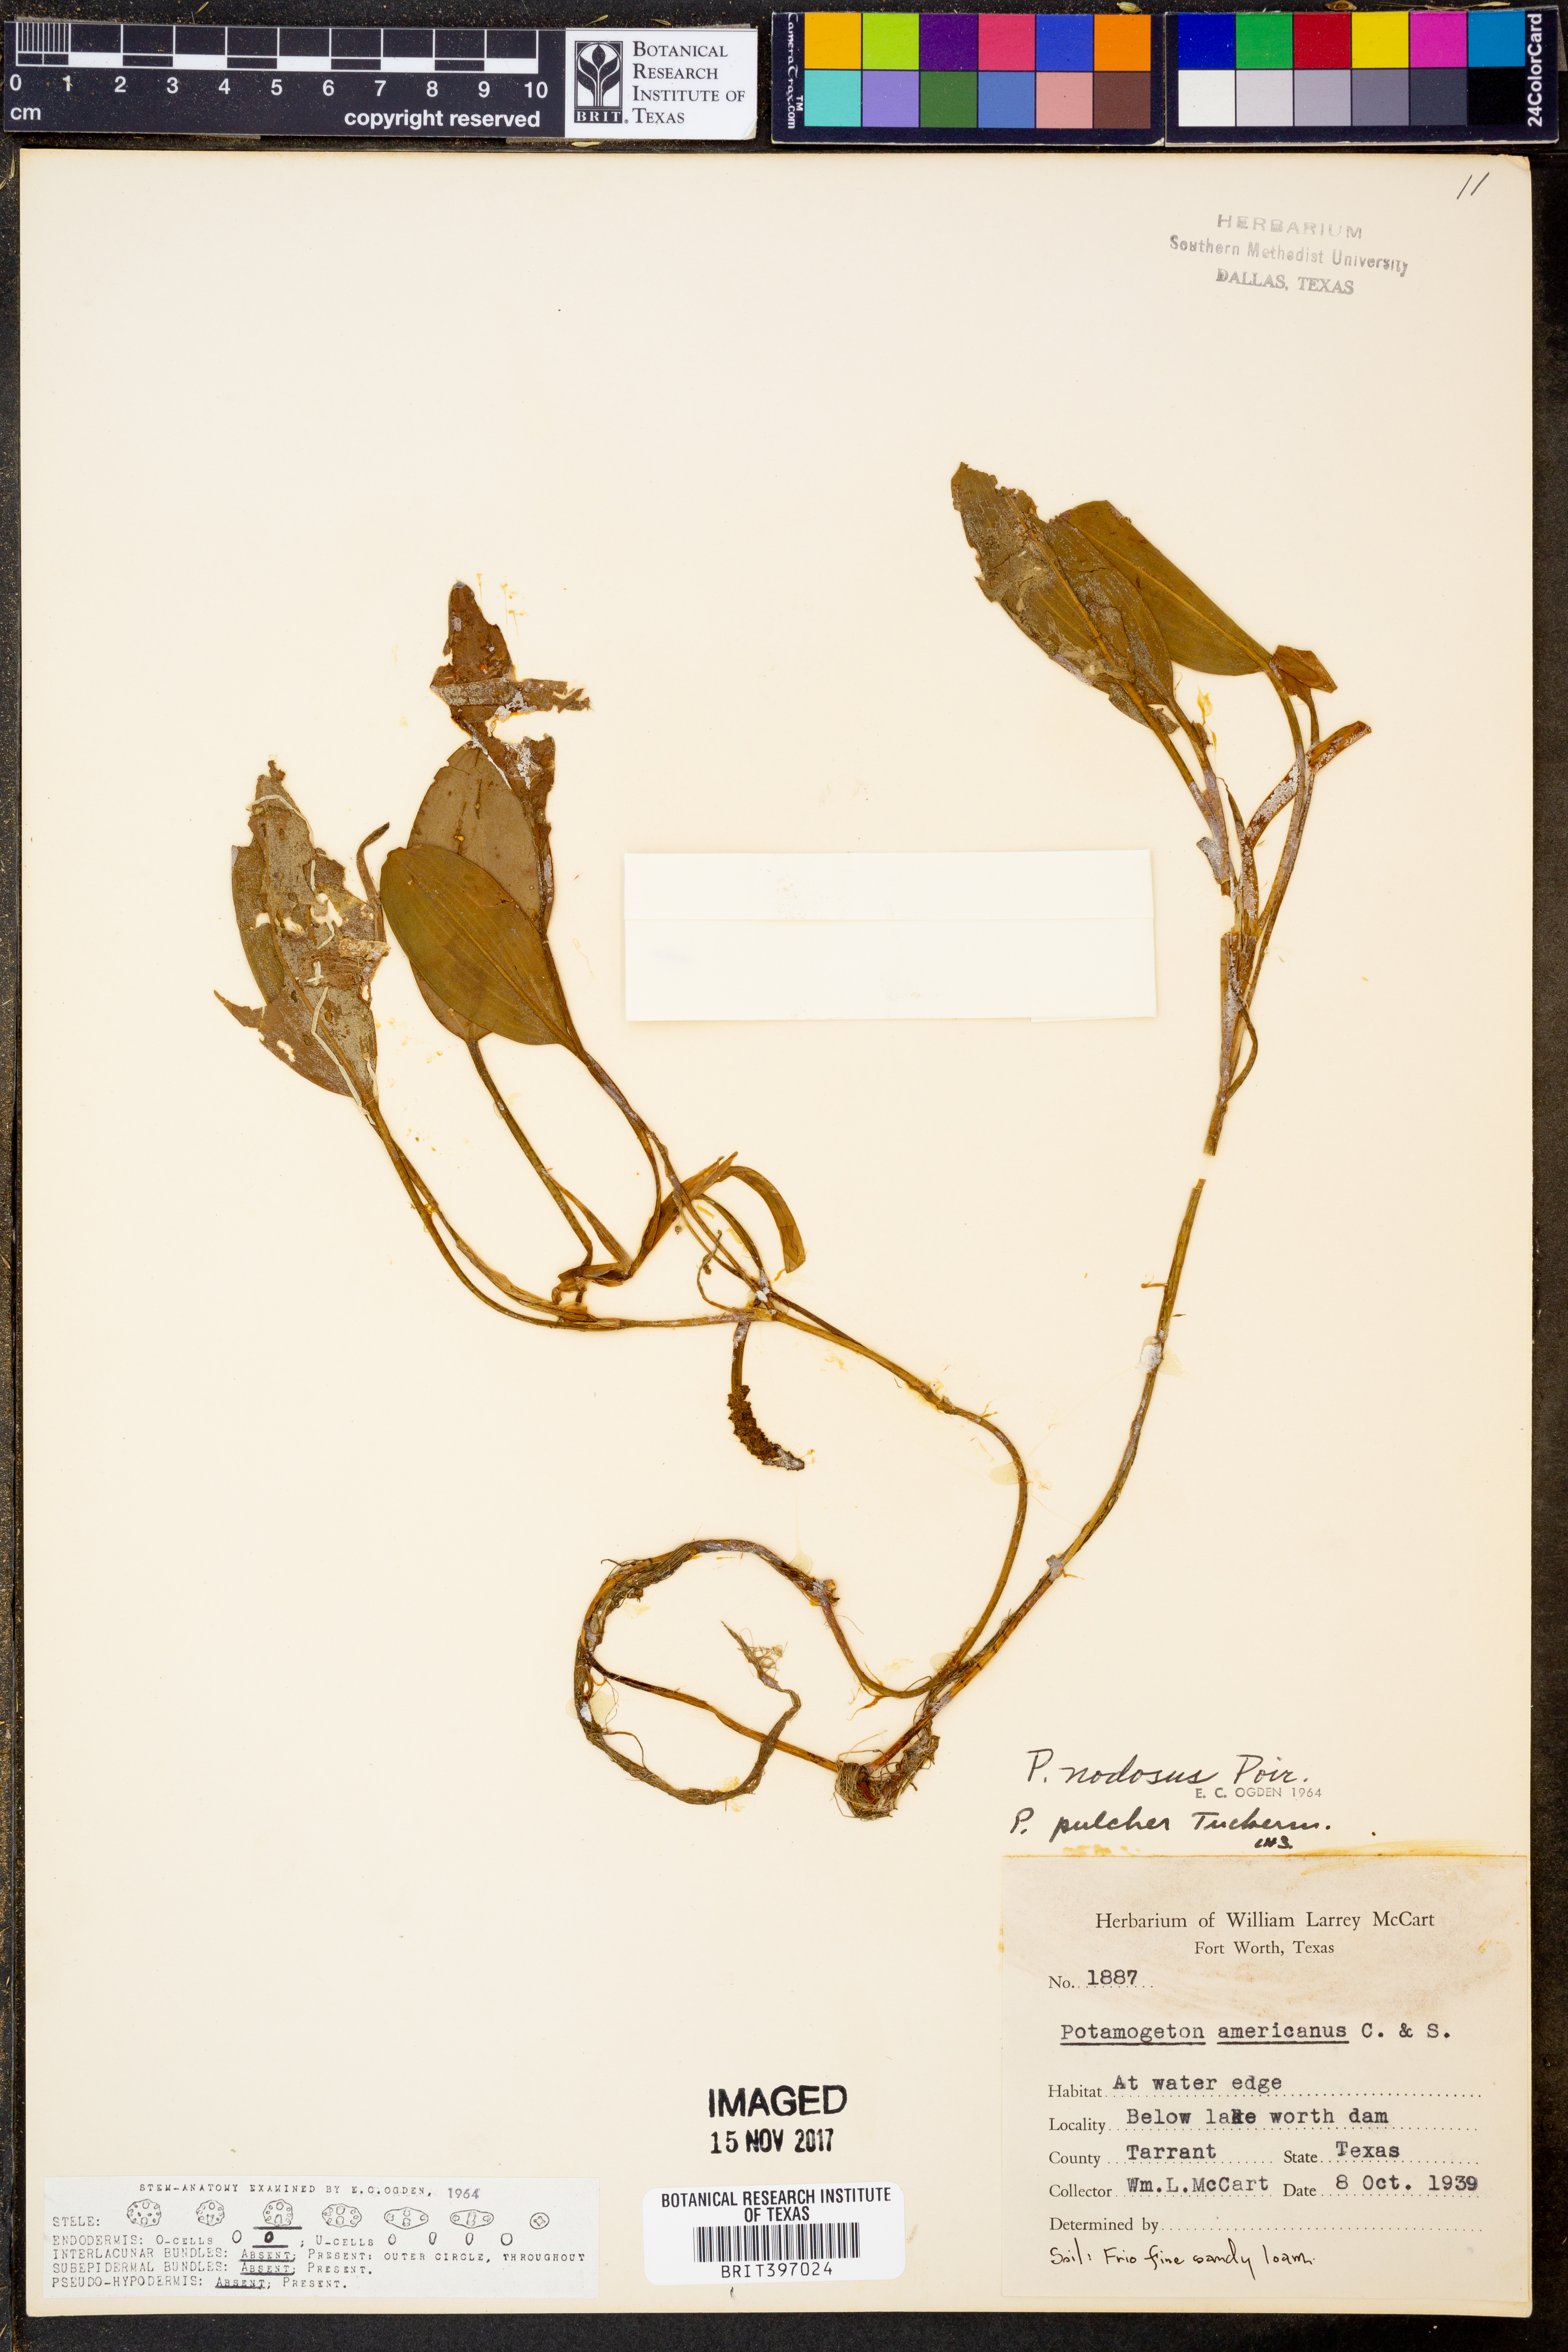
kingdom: Plantae
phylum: Tracheophyta
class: Liliopsida
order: Alismatales
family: Potamogetonaceae
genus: Potamogeton
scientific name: Potamogeton nodosus
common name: Loddon pondweed
